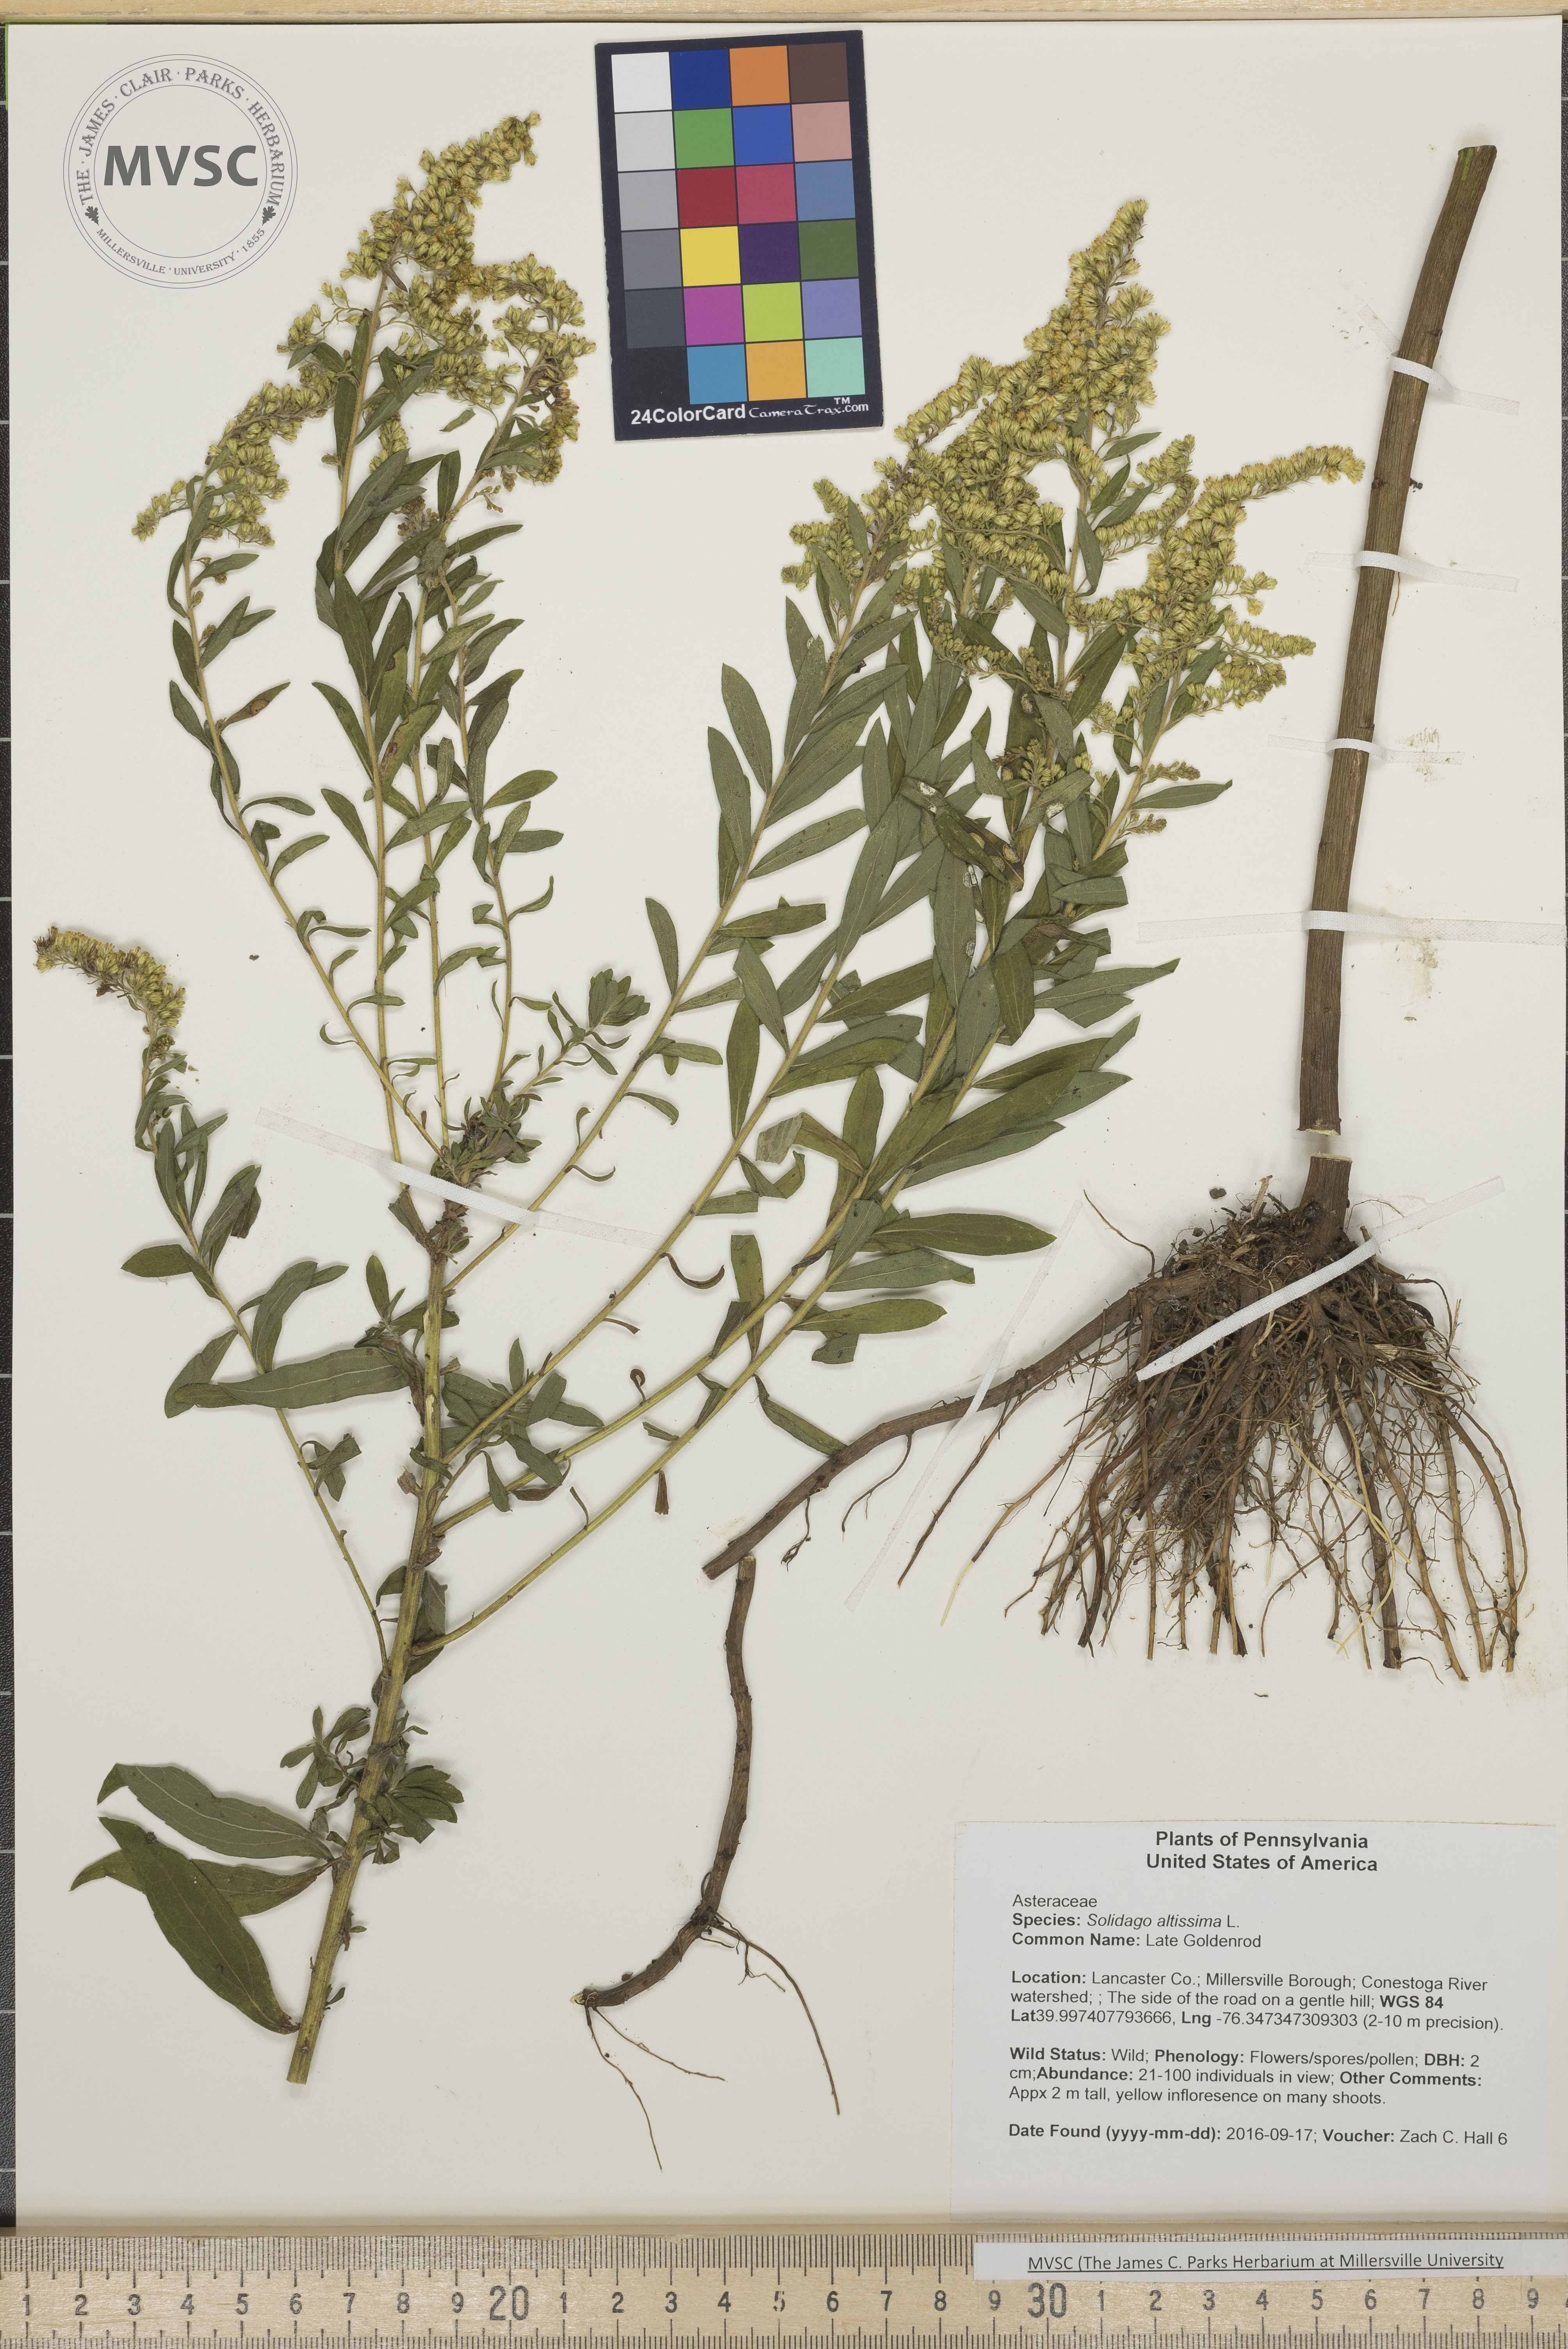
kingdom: Plantae
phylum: Tracheophyta
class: Magnoliopsida
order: Asterales
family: Asteraceae
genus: Solidago
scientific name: Solidago altissima
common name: Late Goldenrod
